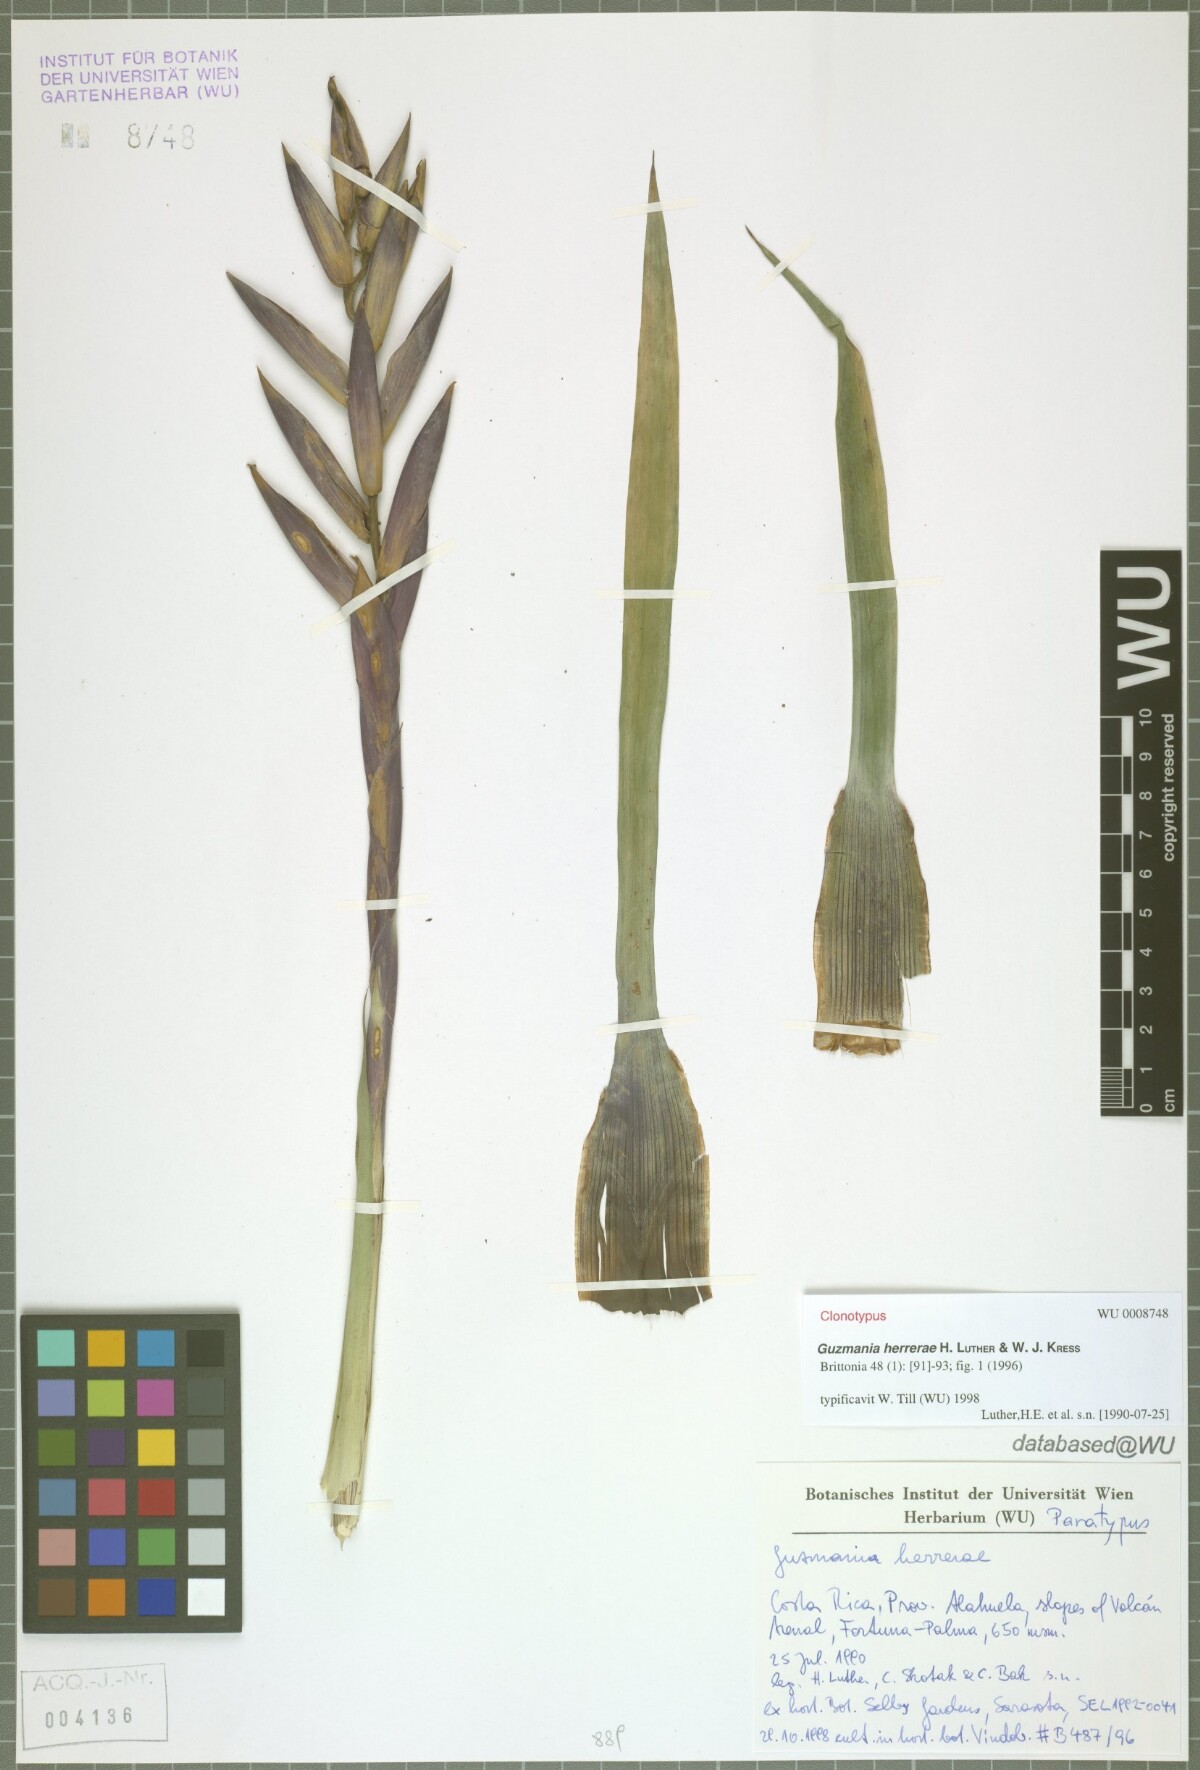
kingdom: Plantae
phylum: Tracheophyta
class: Liliopsida
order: Poales
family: Bromeliaceae
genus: Guzmania
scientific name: Guzmania herrerae
